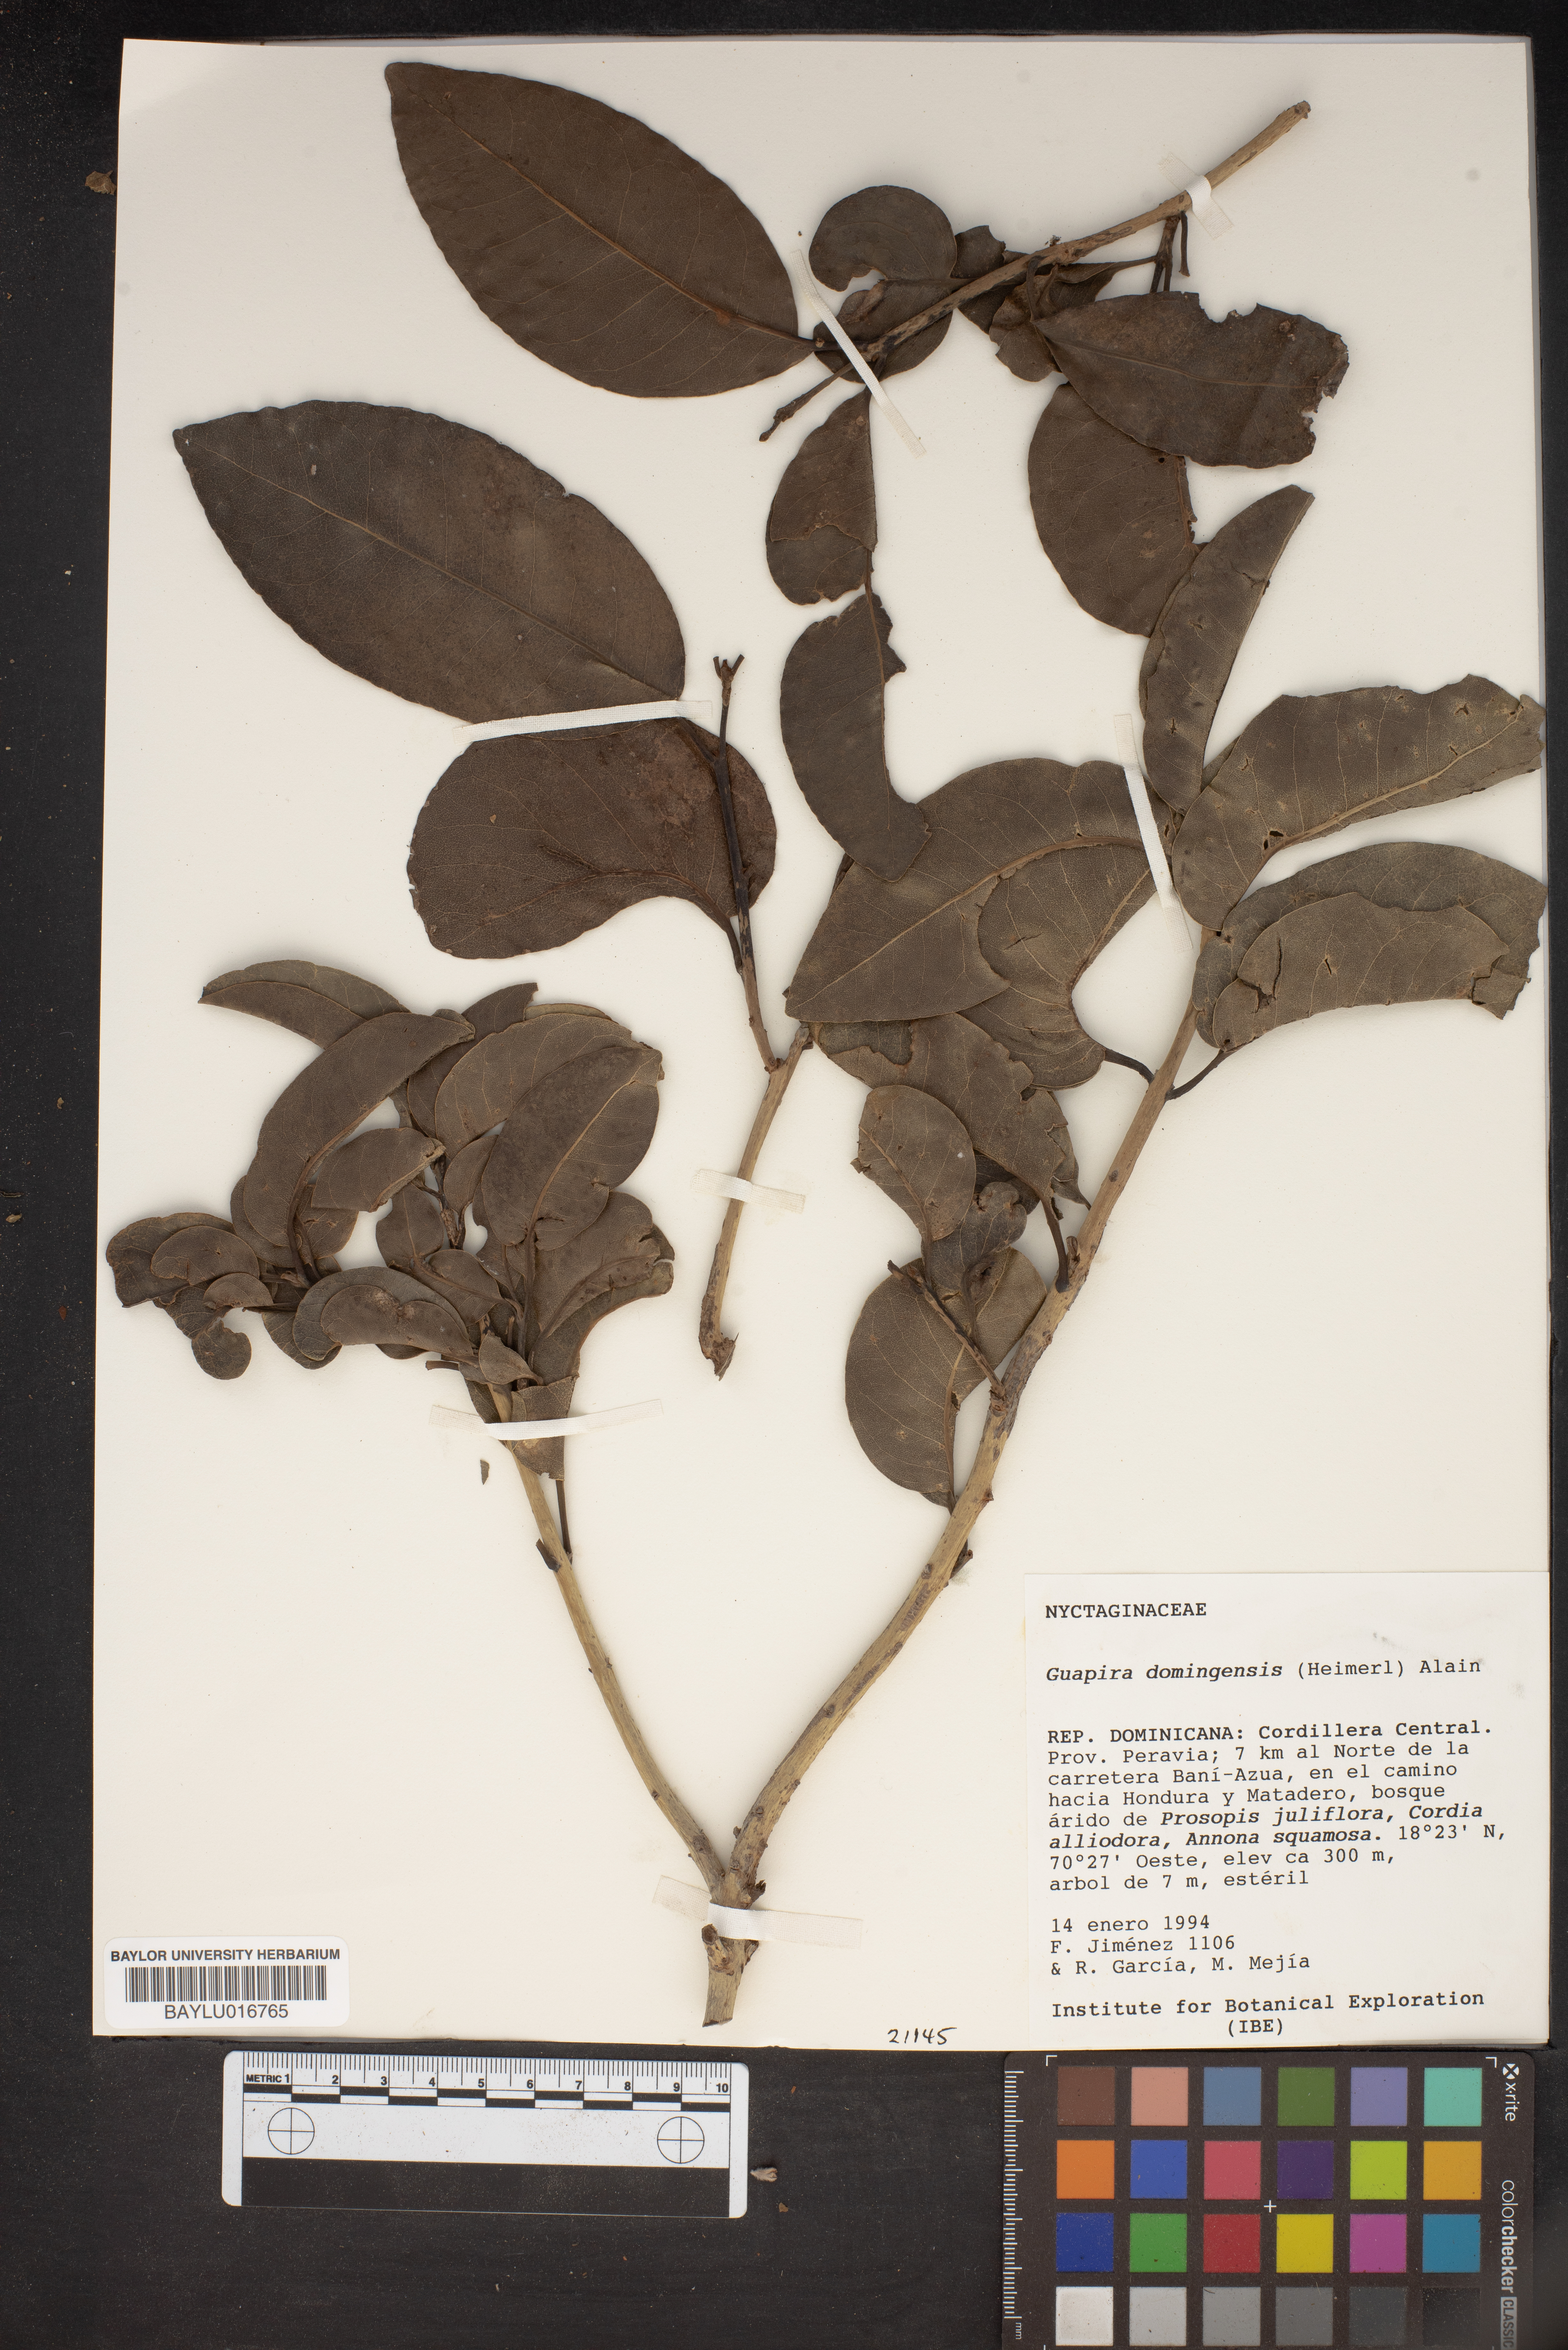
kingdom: Plantae
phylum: Tracheophyta
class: Magnoliopsida
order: Caryophyllales
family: Nyctaginaceae
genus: Guapira
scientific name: Guapira domingensis
